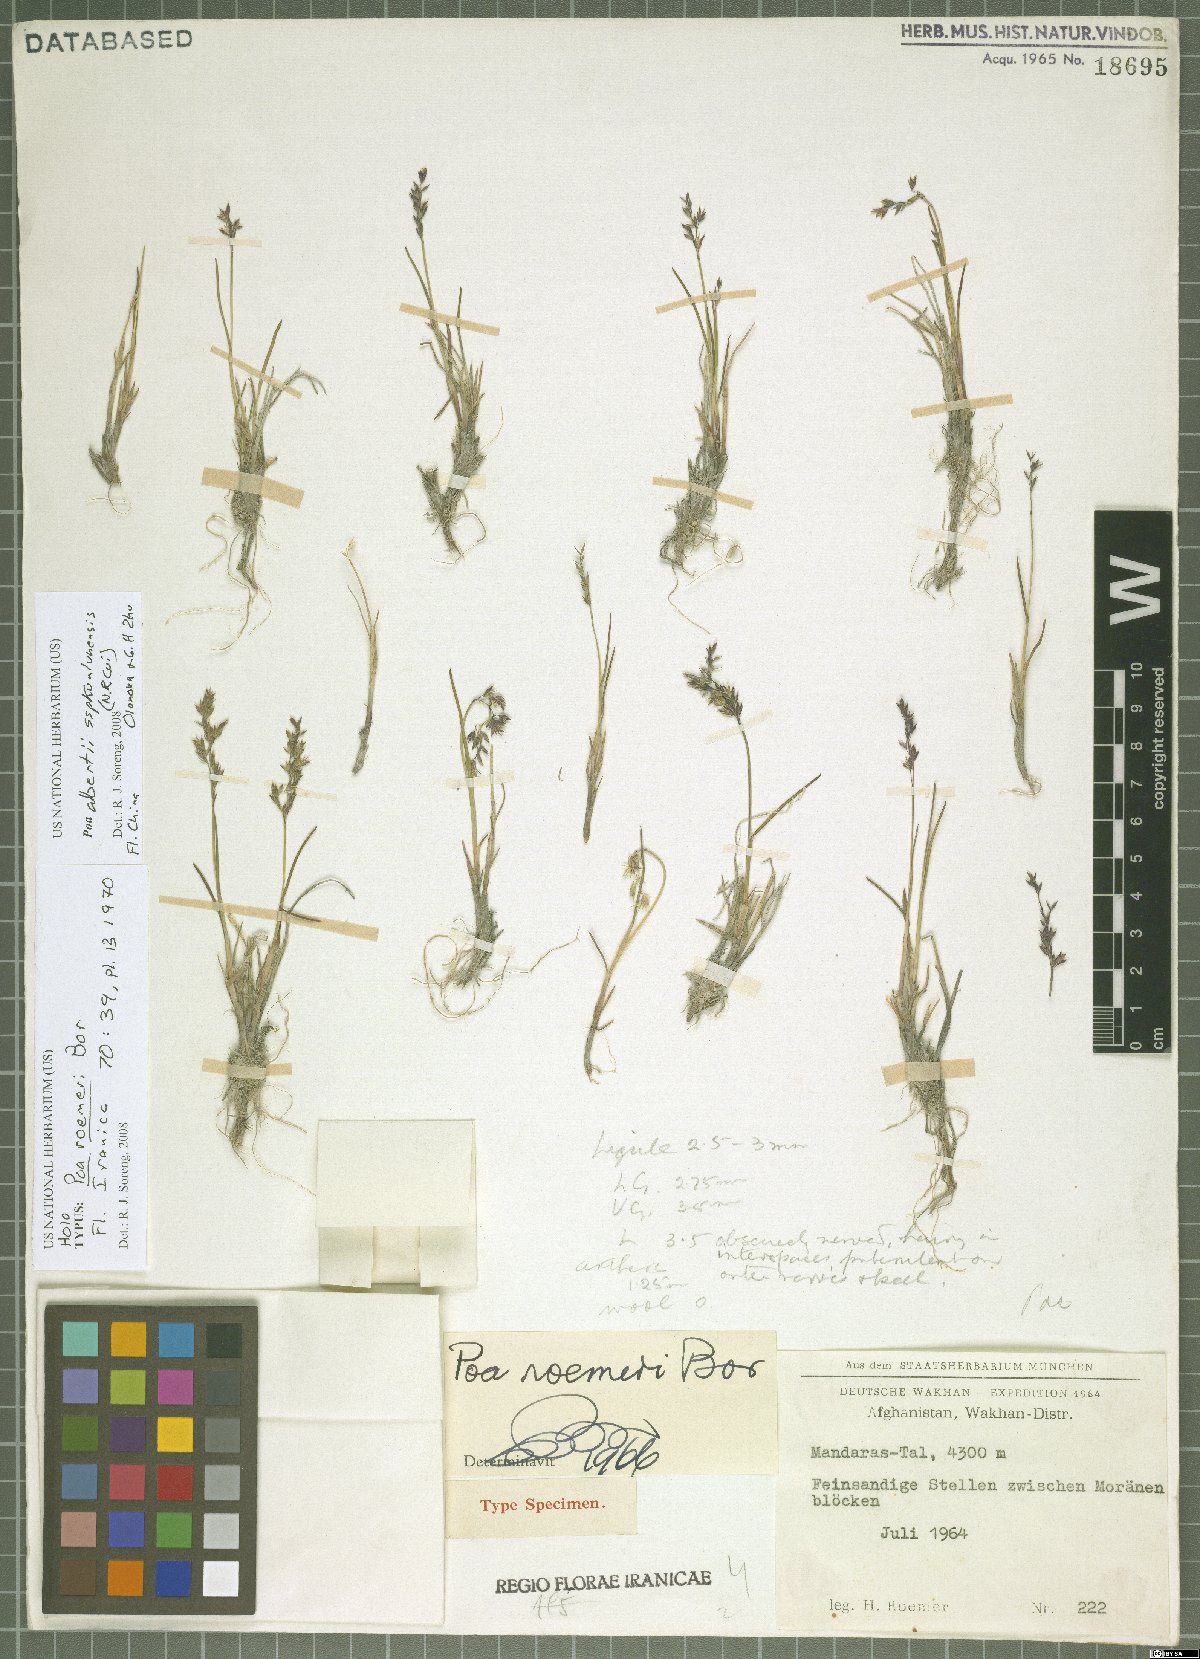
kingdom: Plantae
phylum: Tracheophyta
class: Liliopsida
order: Poales
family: Poaceae
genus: Poa
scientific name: Poa alberti
